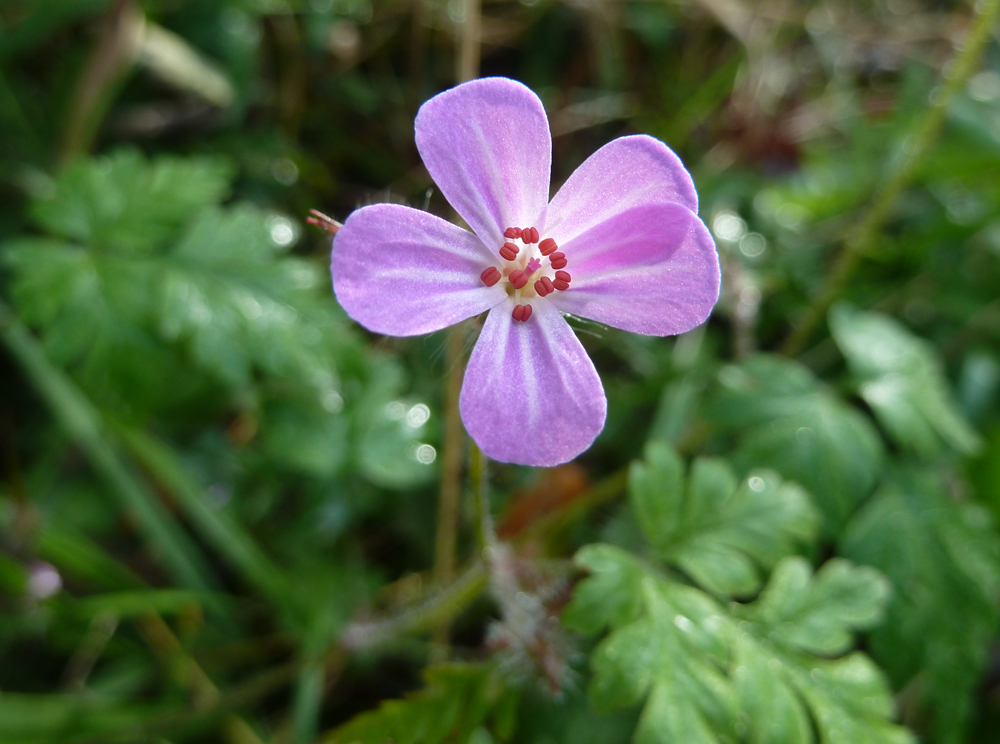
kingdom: Plantae
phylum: Tracheophyta
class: Magnoliopsida
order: Geraniales
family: Geraniaceae
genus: Geranium
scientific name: Geranium robertianum
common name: Herb-robert
